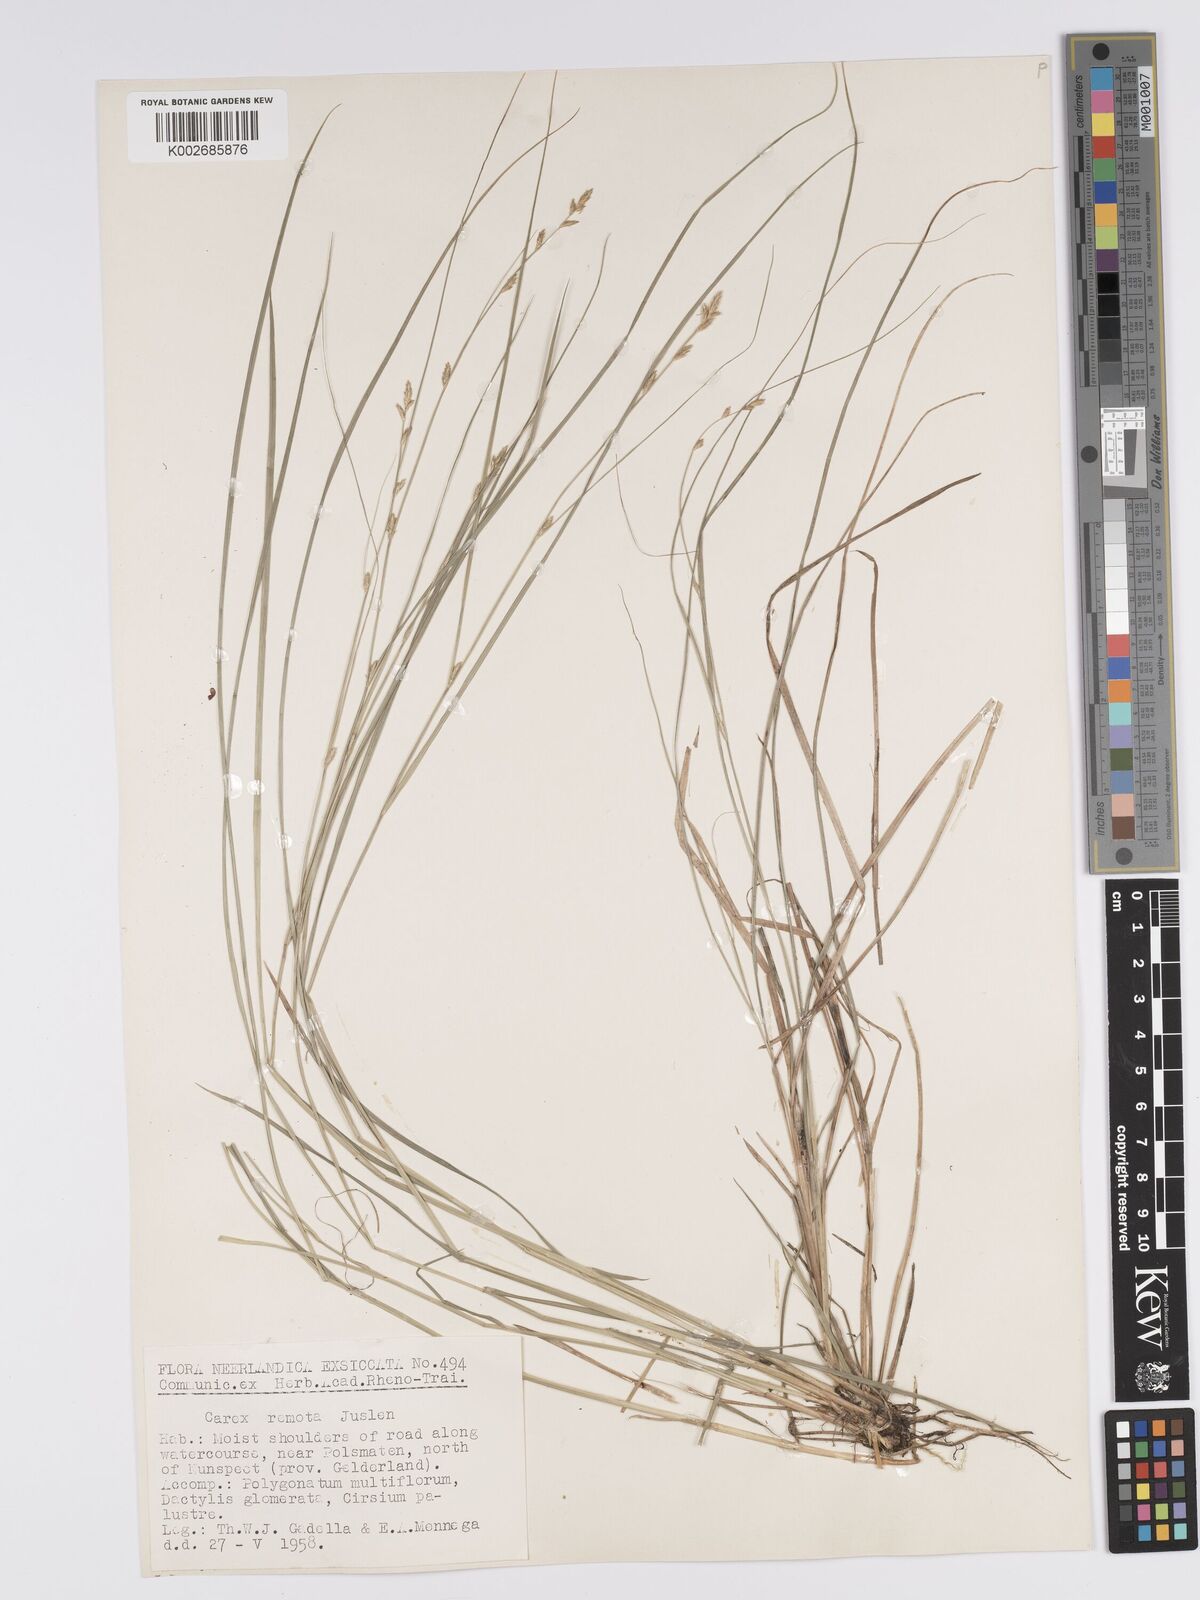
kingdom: Plantae
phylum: Tracheophyta
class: Liliopsida
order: Poales
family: Cyperaceae
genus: Carex
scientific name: Carex remota
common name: Remote sedge
